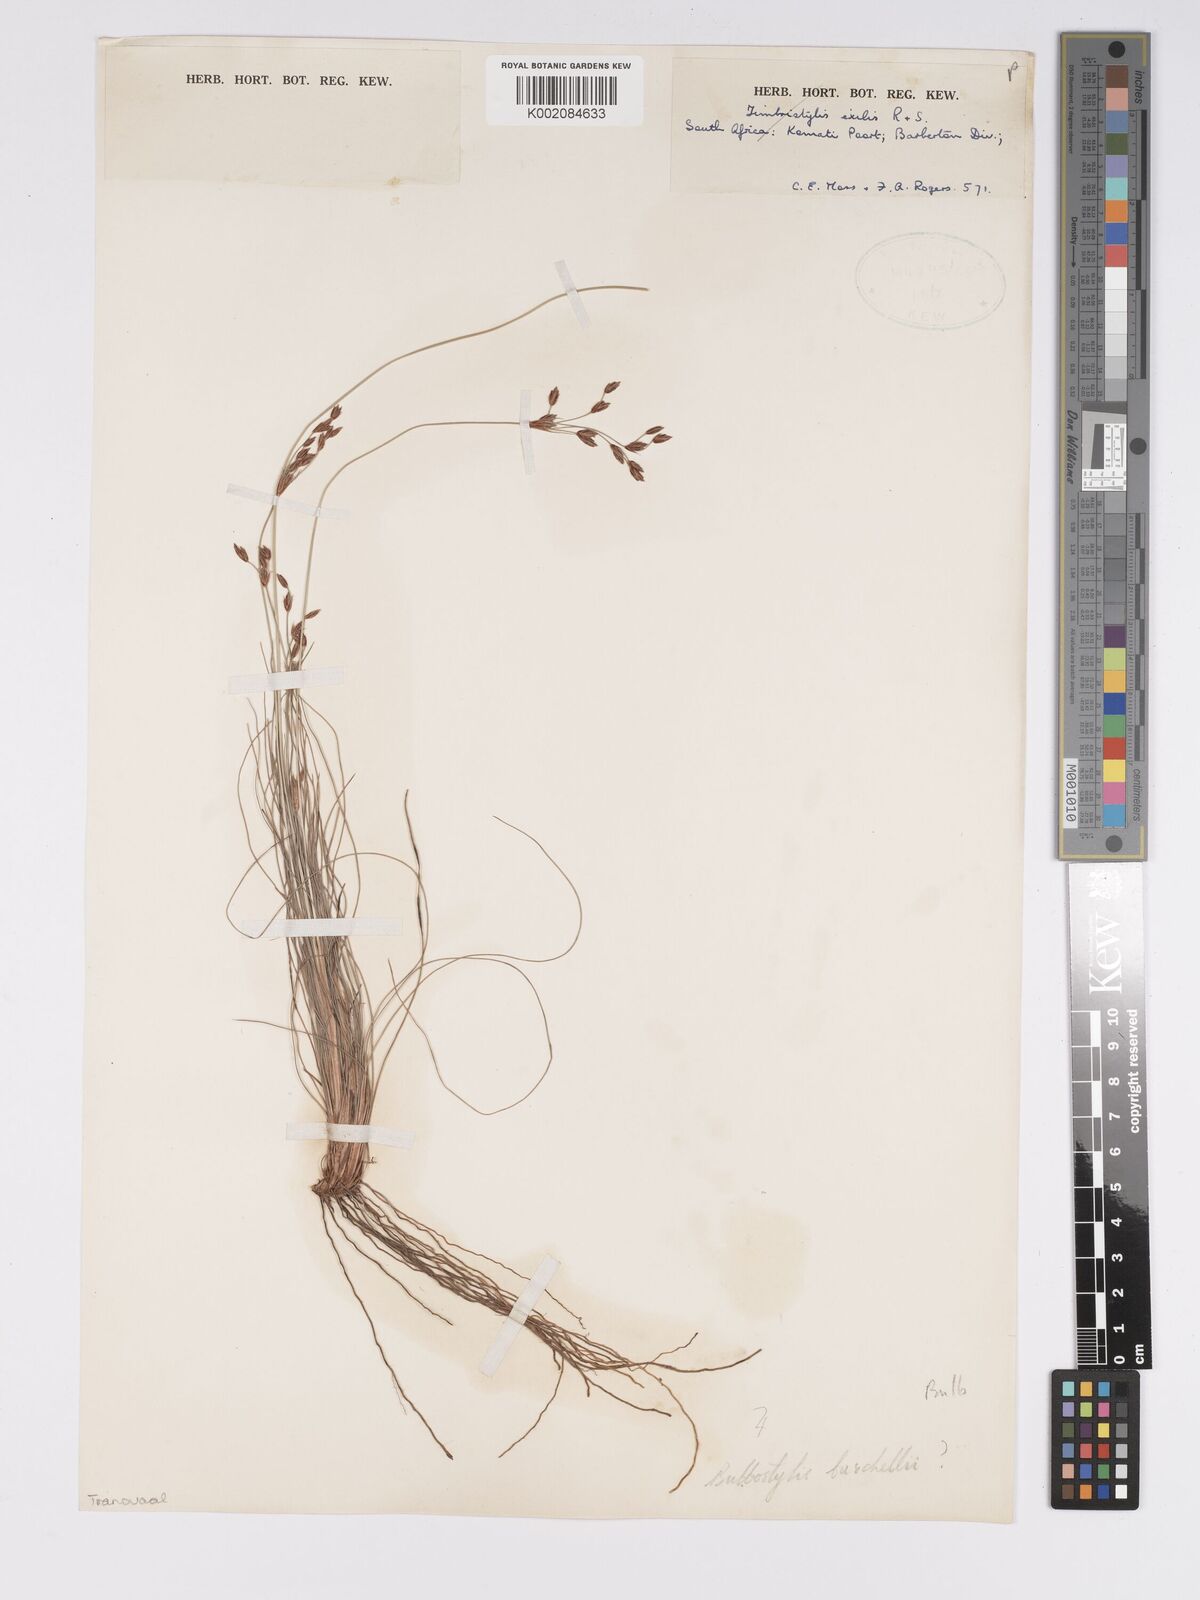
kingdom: Plantae
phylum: Tracheophyta
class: Liliopsida
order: Poales
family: Cyperaceae
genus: Bulbostylis
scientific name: Bulbostylis burchellii
